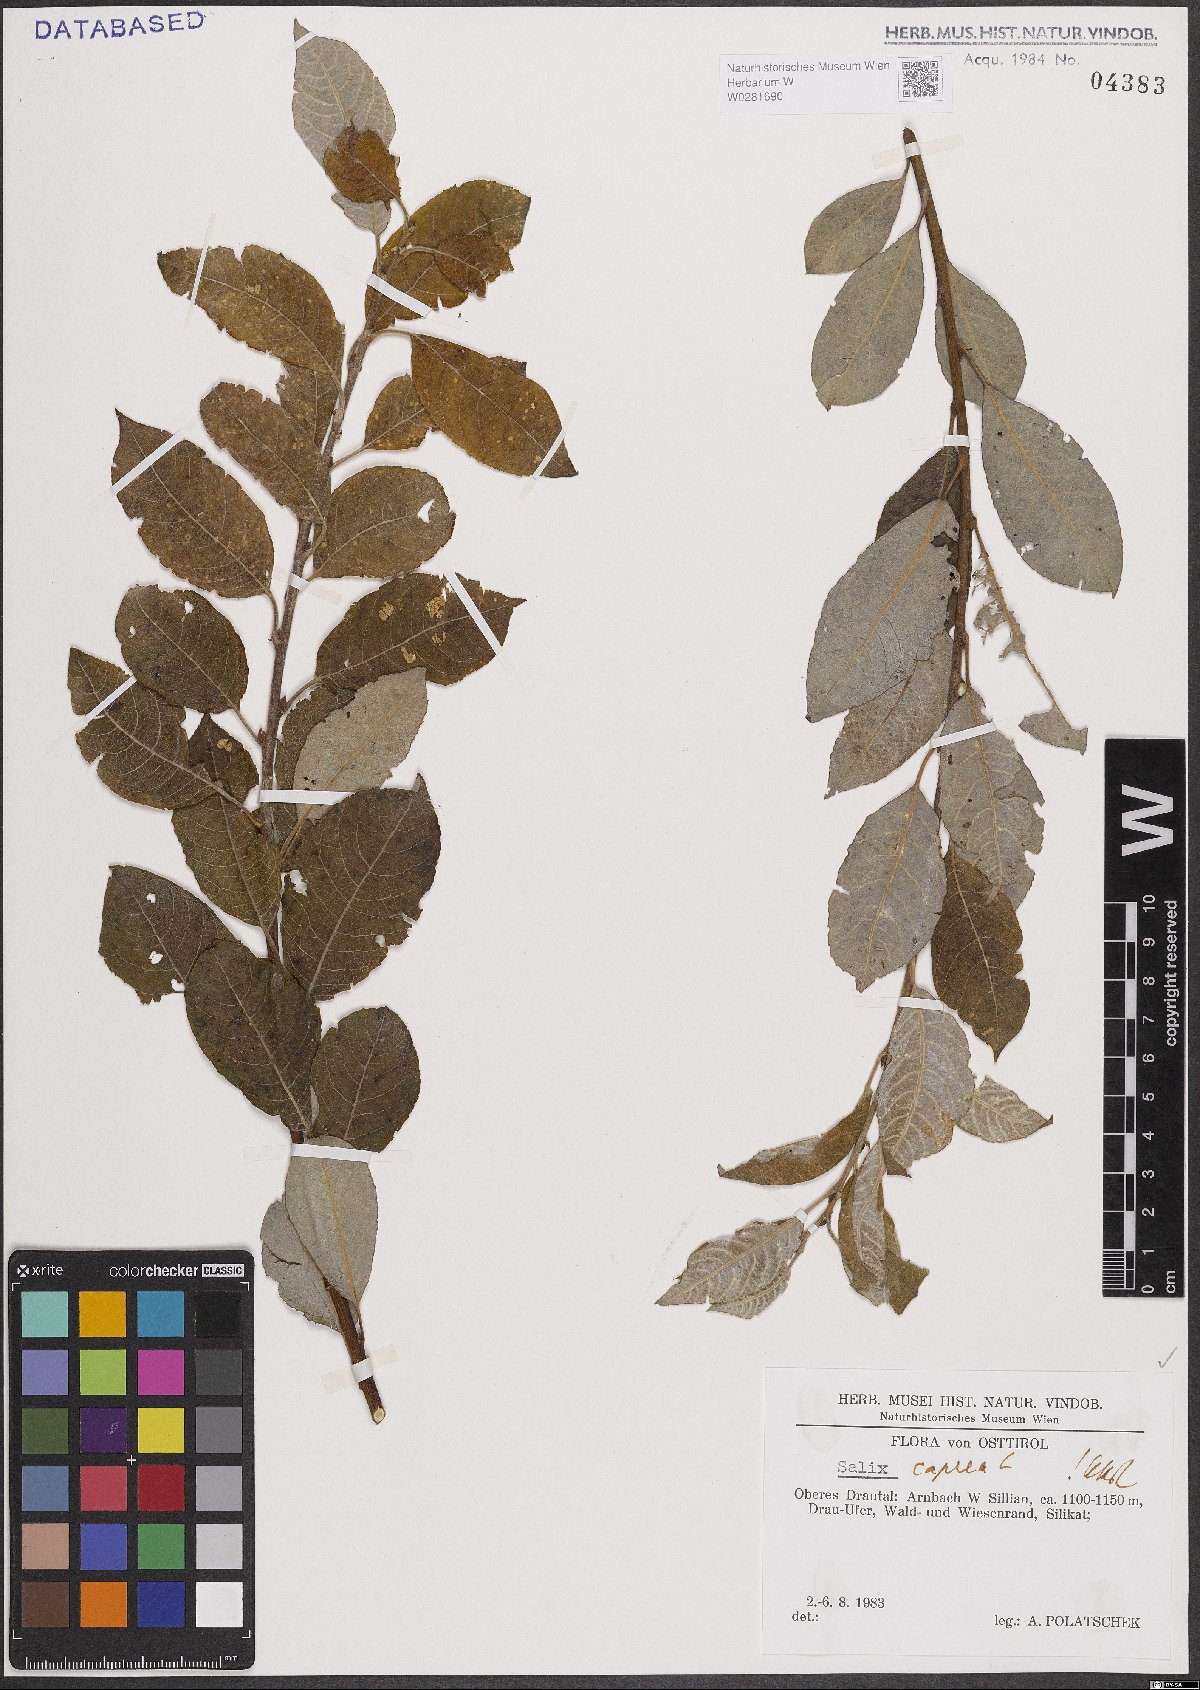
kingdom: Plantae
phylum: Tracheophyta
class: Magnoliopsida
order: Malpighiales
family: Salicaceae
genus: Salix
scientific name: Salix caprea
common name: Goat willow
